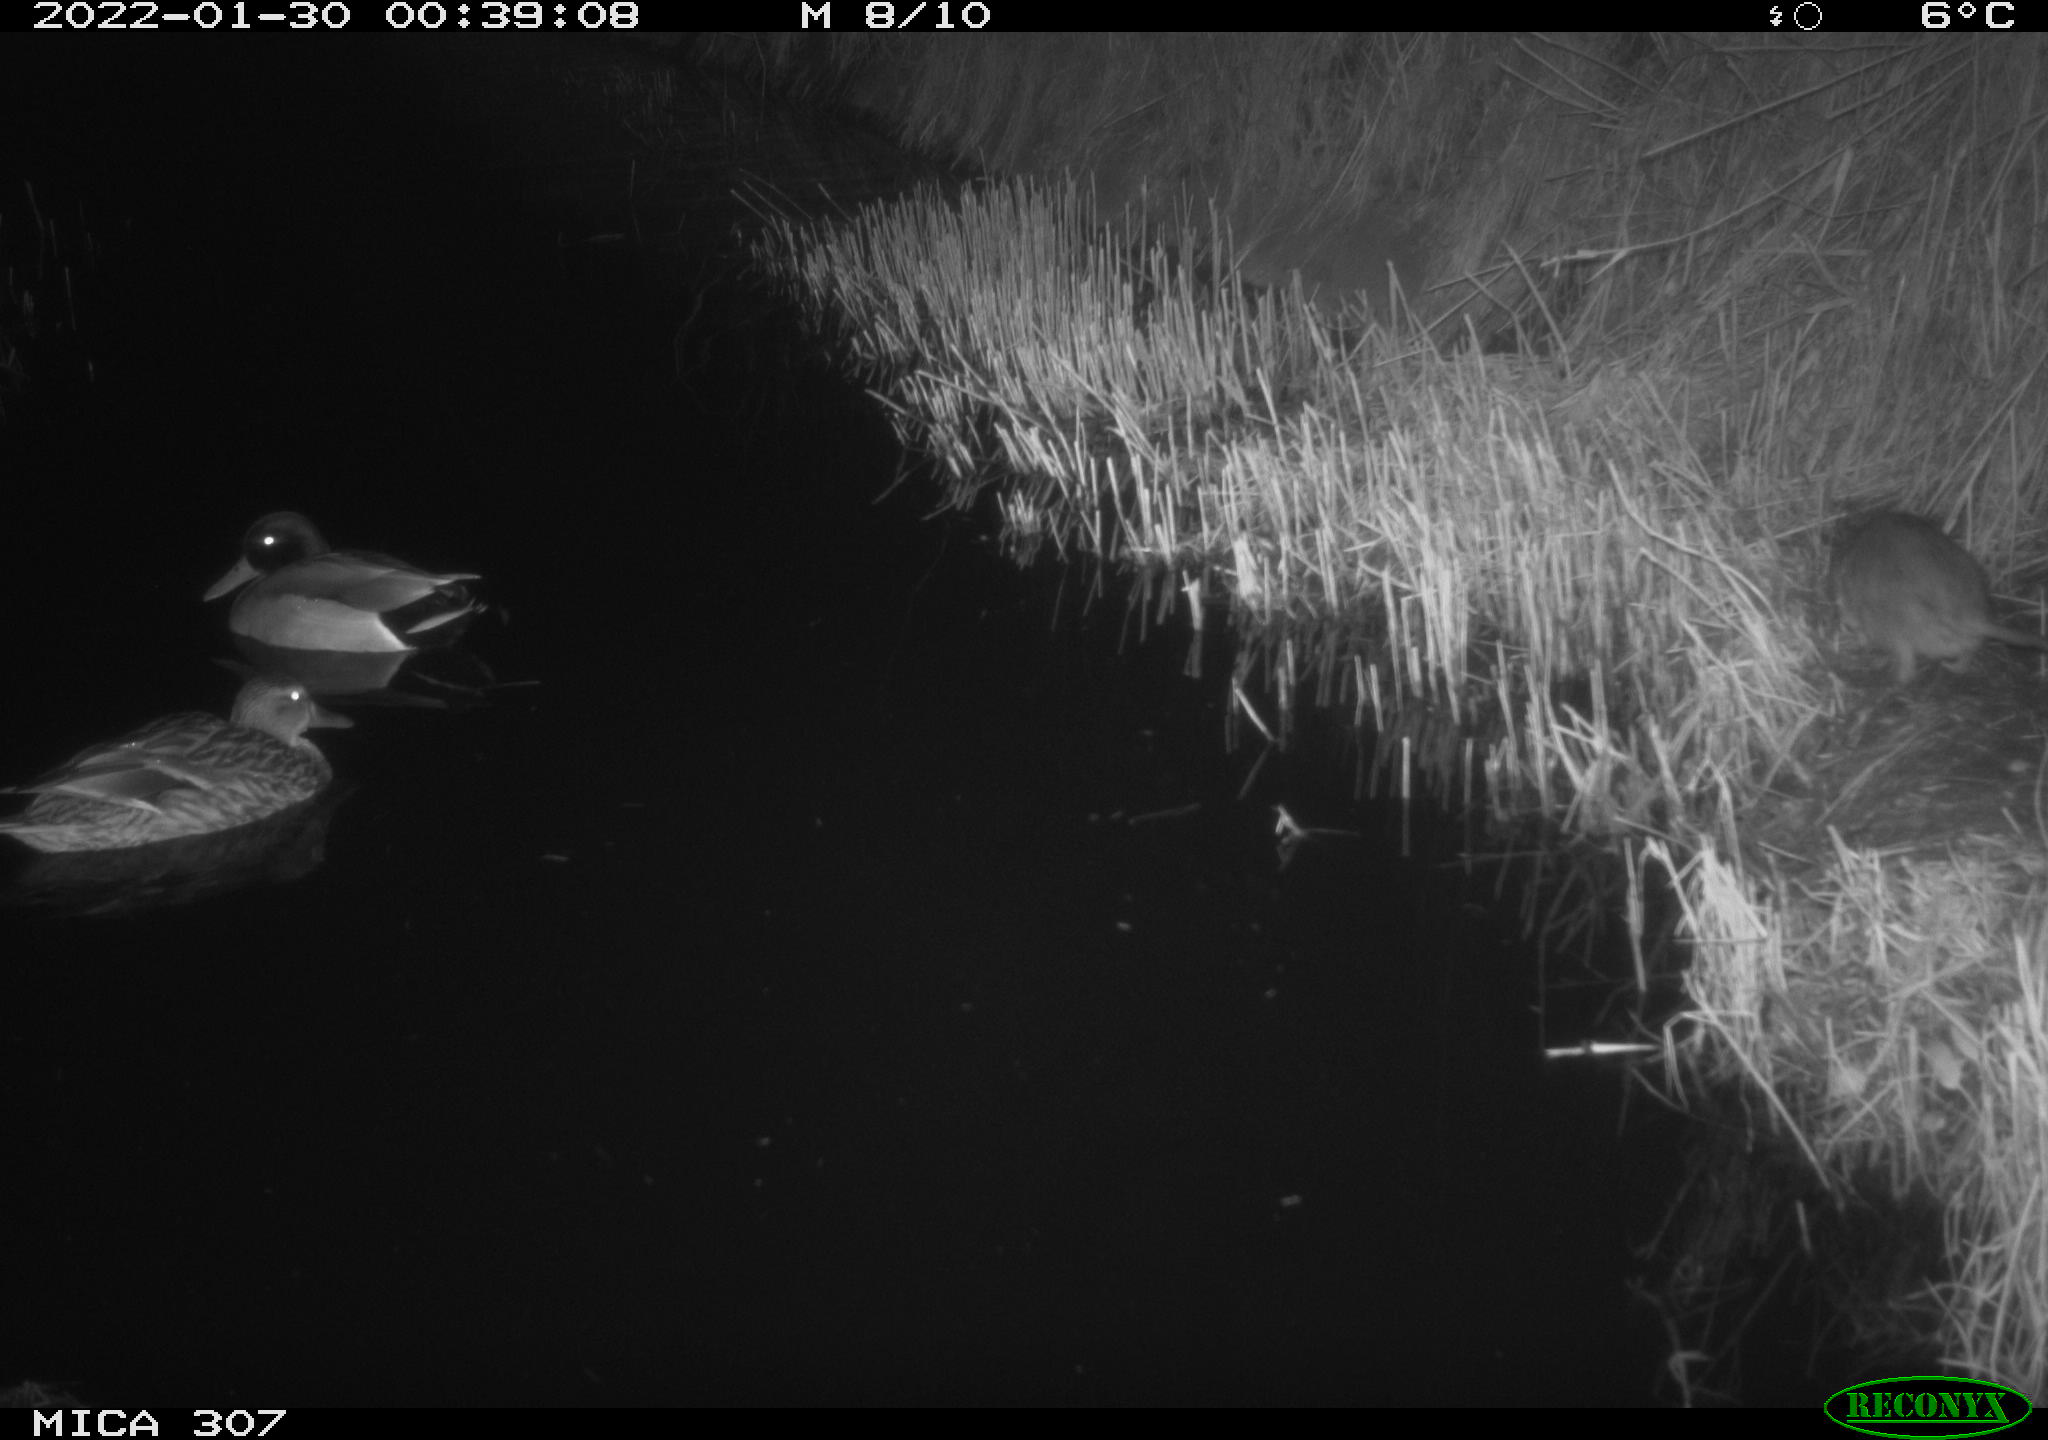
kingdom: Animalia
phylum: Chordata
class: Mammalia
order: Rodentia
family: Muridae
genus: Rattus
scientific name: Rattus norvegicus
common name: Brown rat
